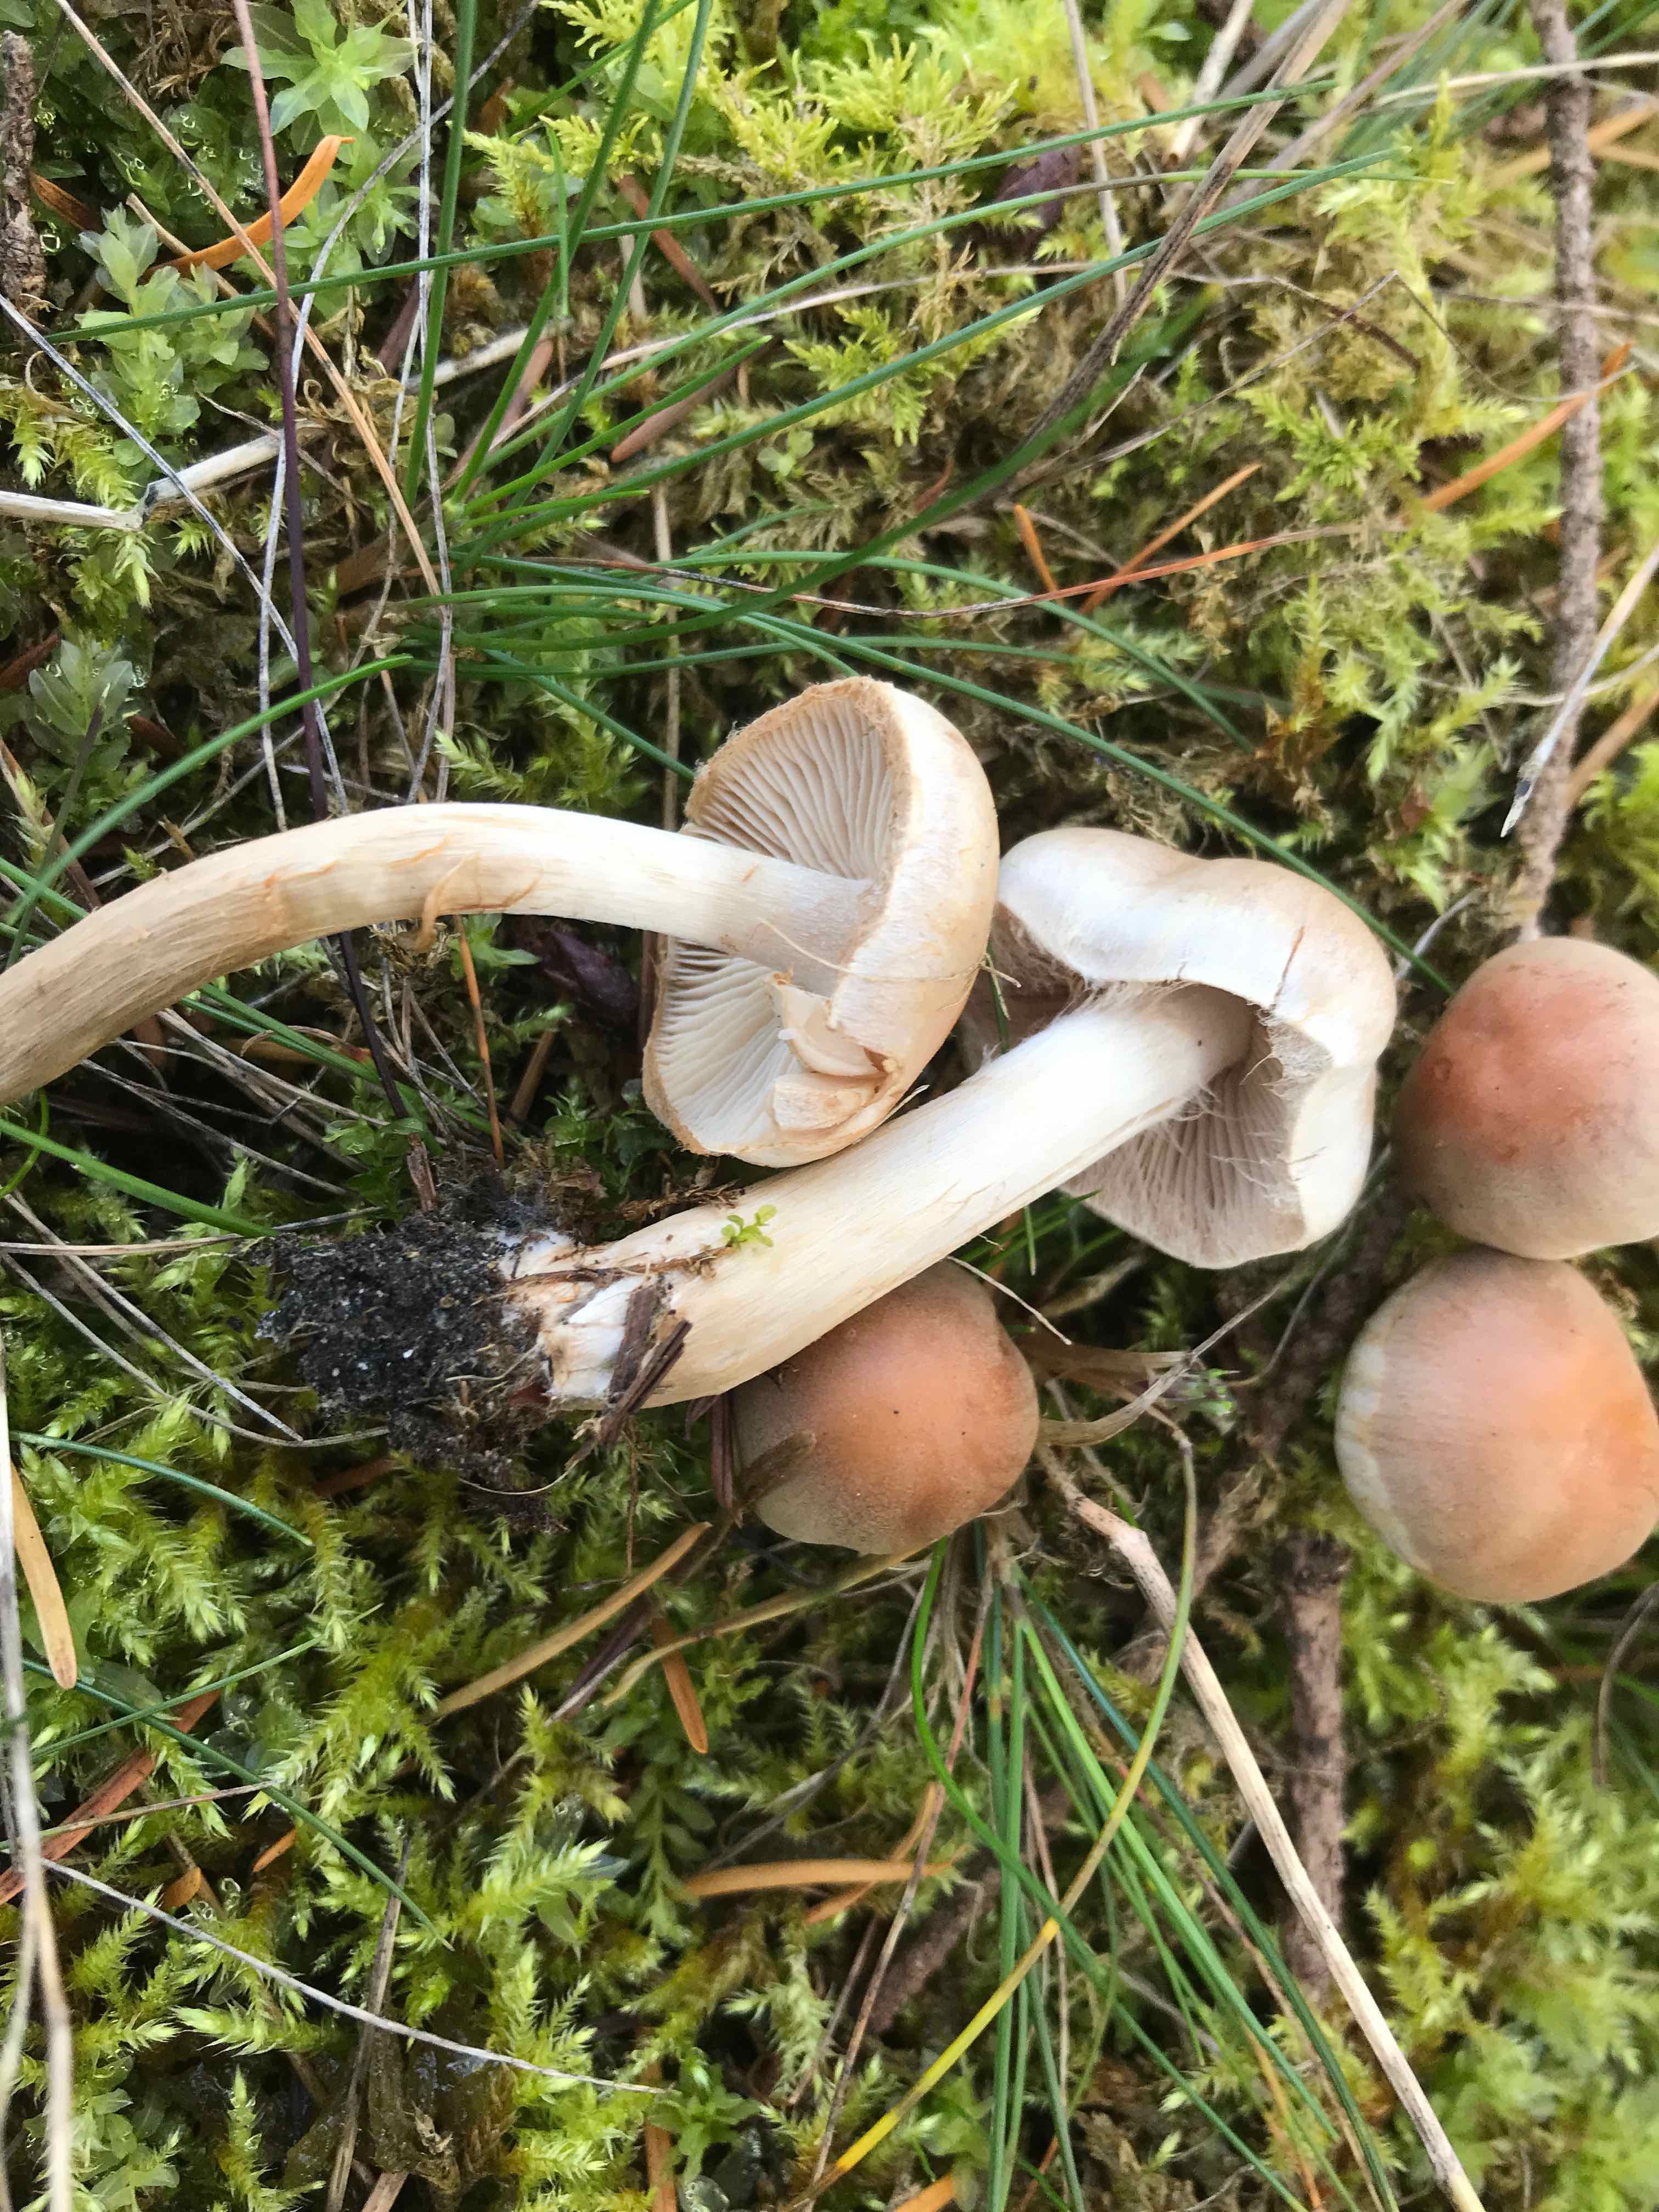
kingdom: Fungi
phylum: Basidiomycota
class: Agaricomycetes
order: Agaricales
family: Strophariaceae
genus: Hypholoma
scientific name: Hypholoma lateritium
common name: teglrød svovlhat
